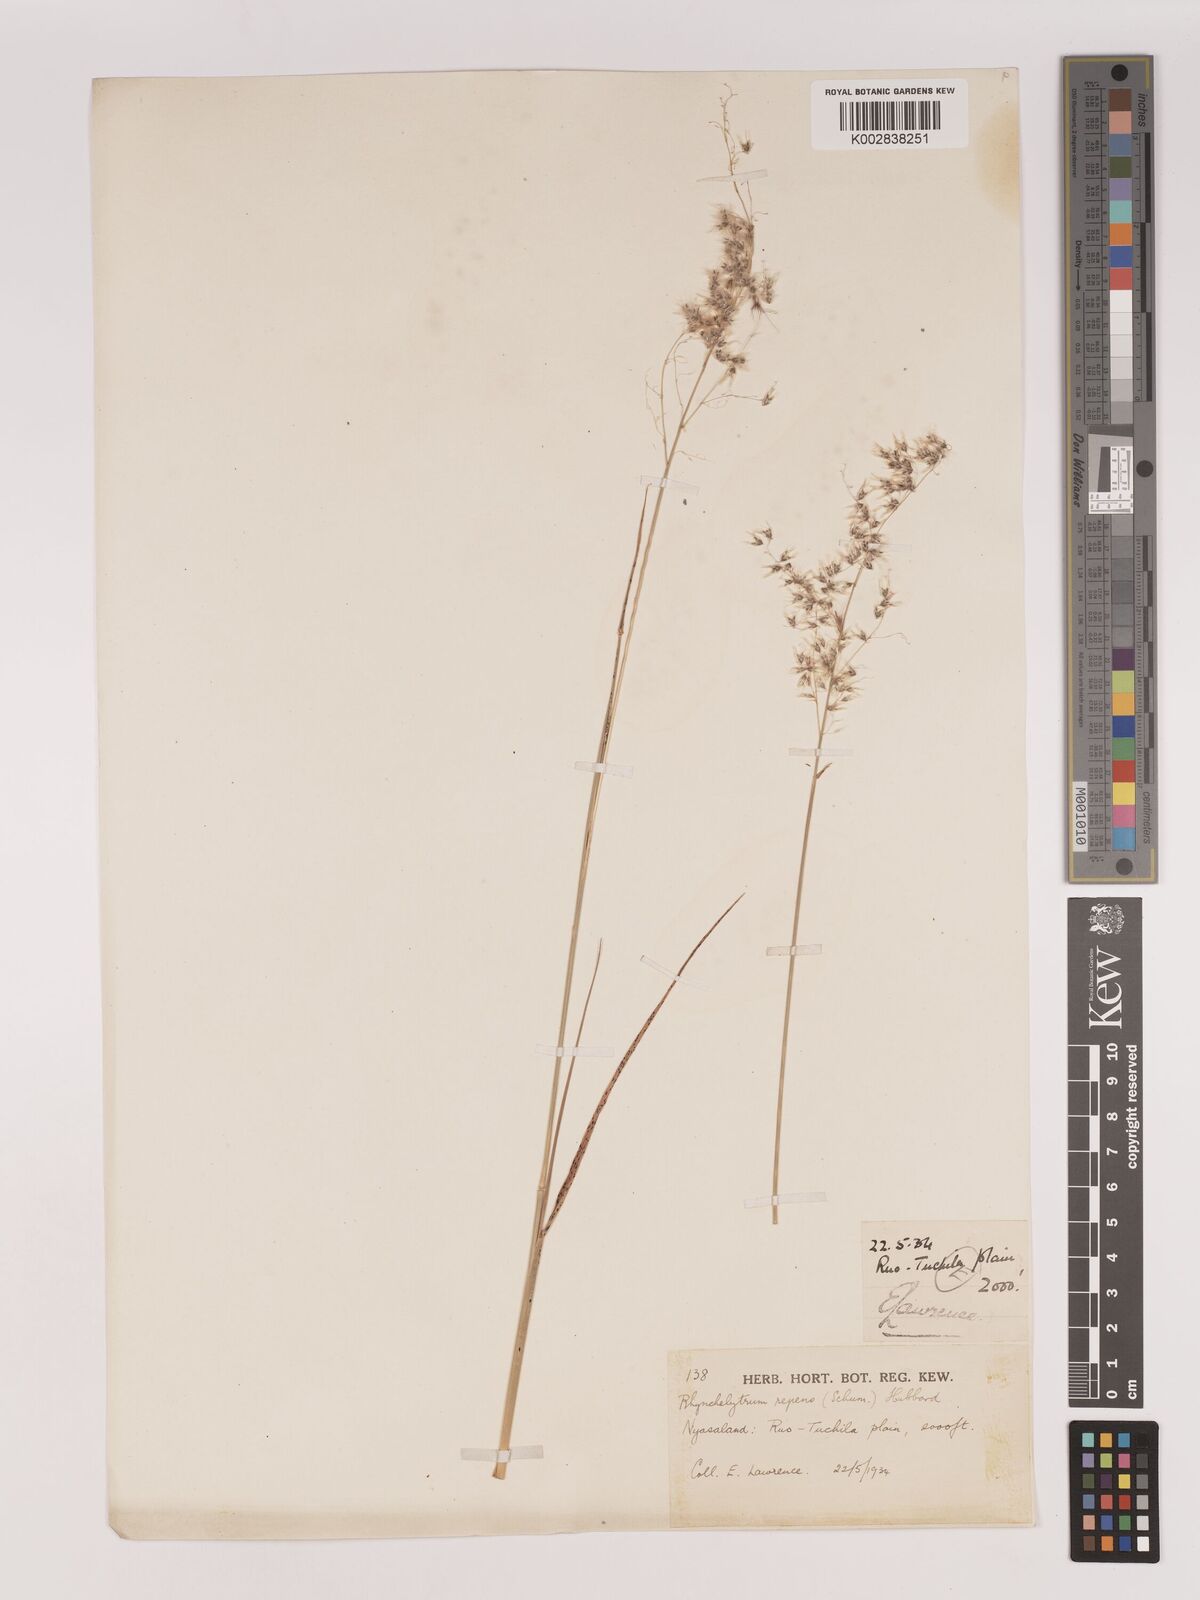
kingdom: Plantae
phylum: Tracheophyta
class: Liliopsida
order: Poales
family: Poaceae
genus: Melinis
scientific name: Melinis repens
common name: Rose natal grass
